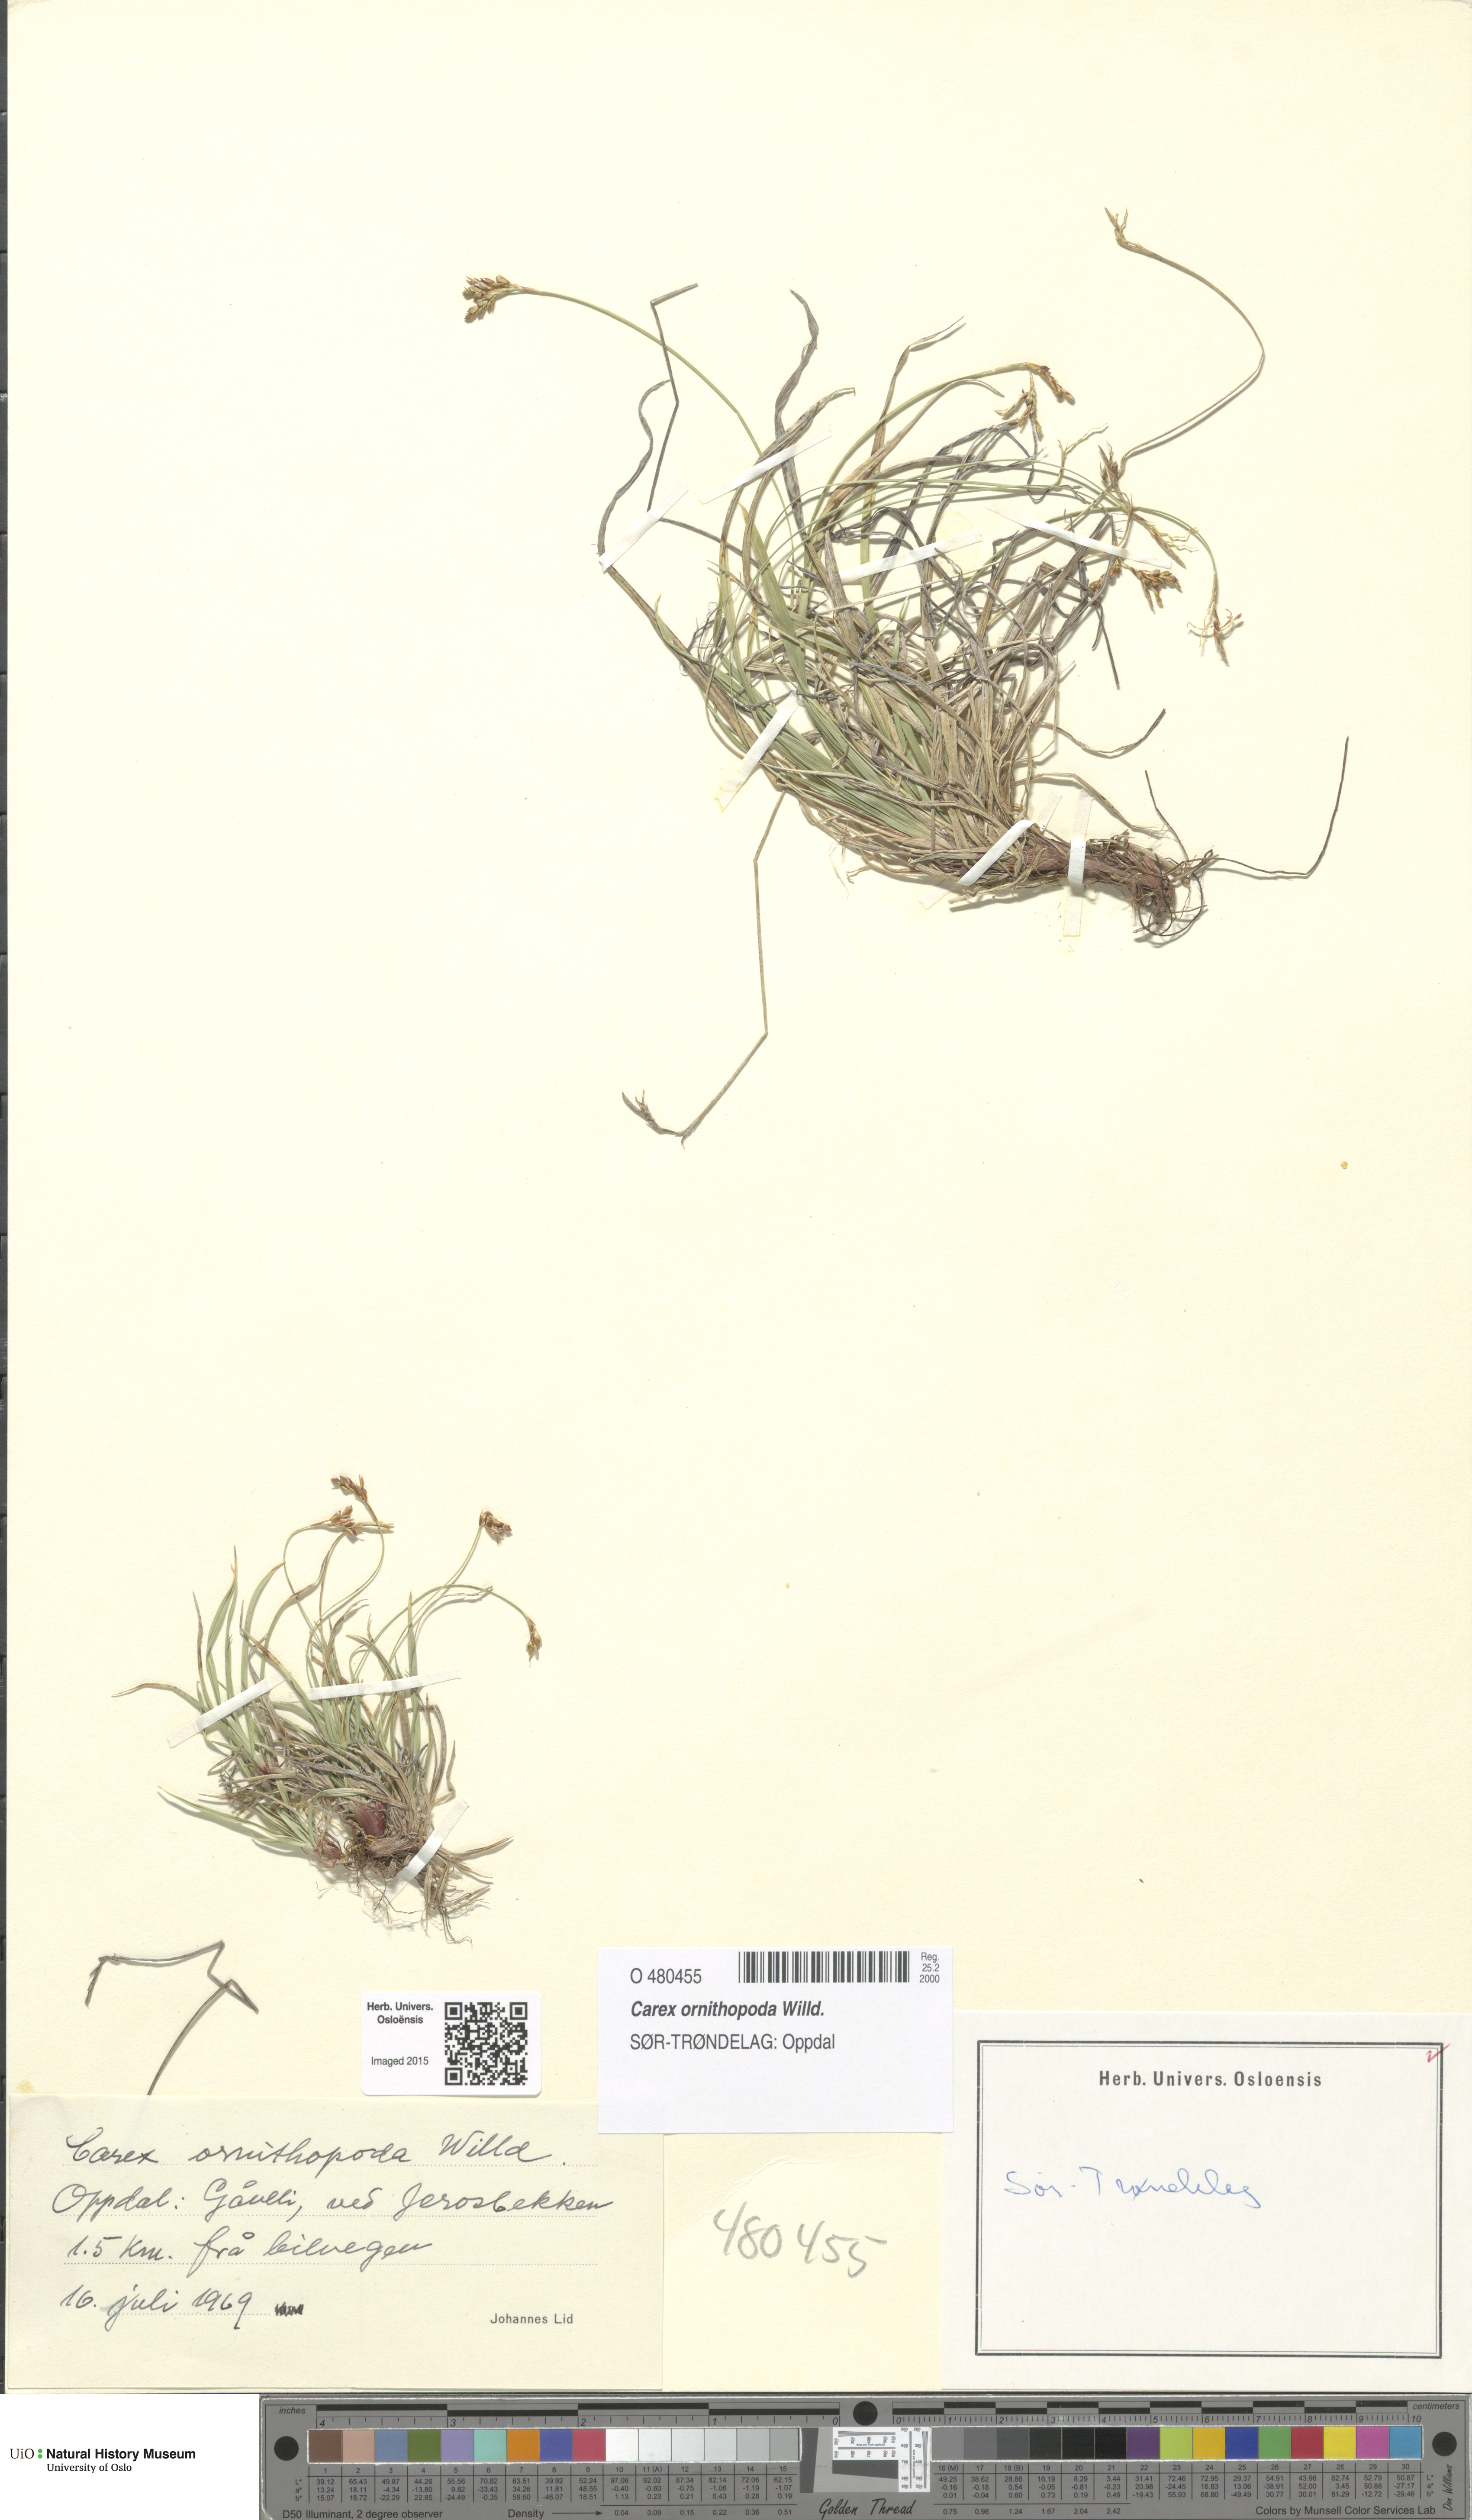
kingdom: Plantae
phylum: Tracheophyta
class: Liliopsida
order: Poales
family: Cyperaceae
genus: Carex
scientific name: Carex ornithopoda
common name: Bird's-foot sedge
